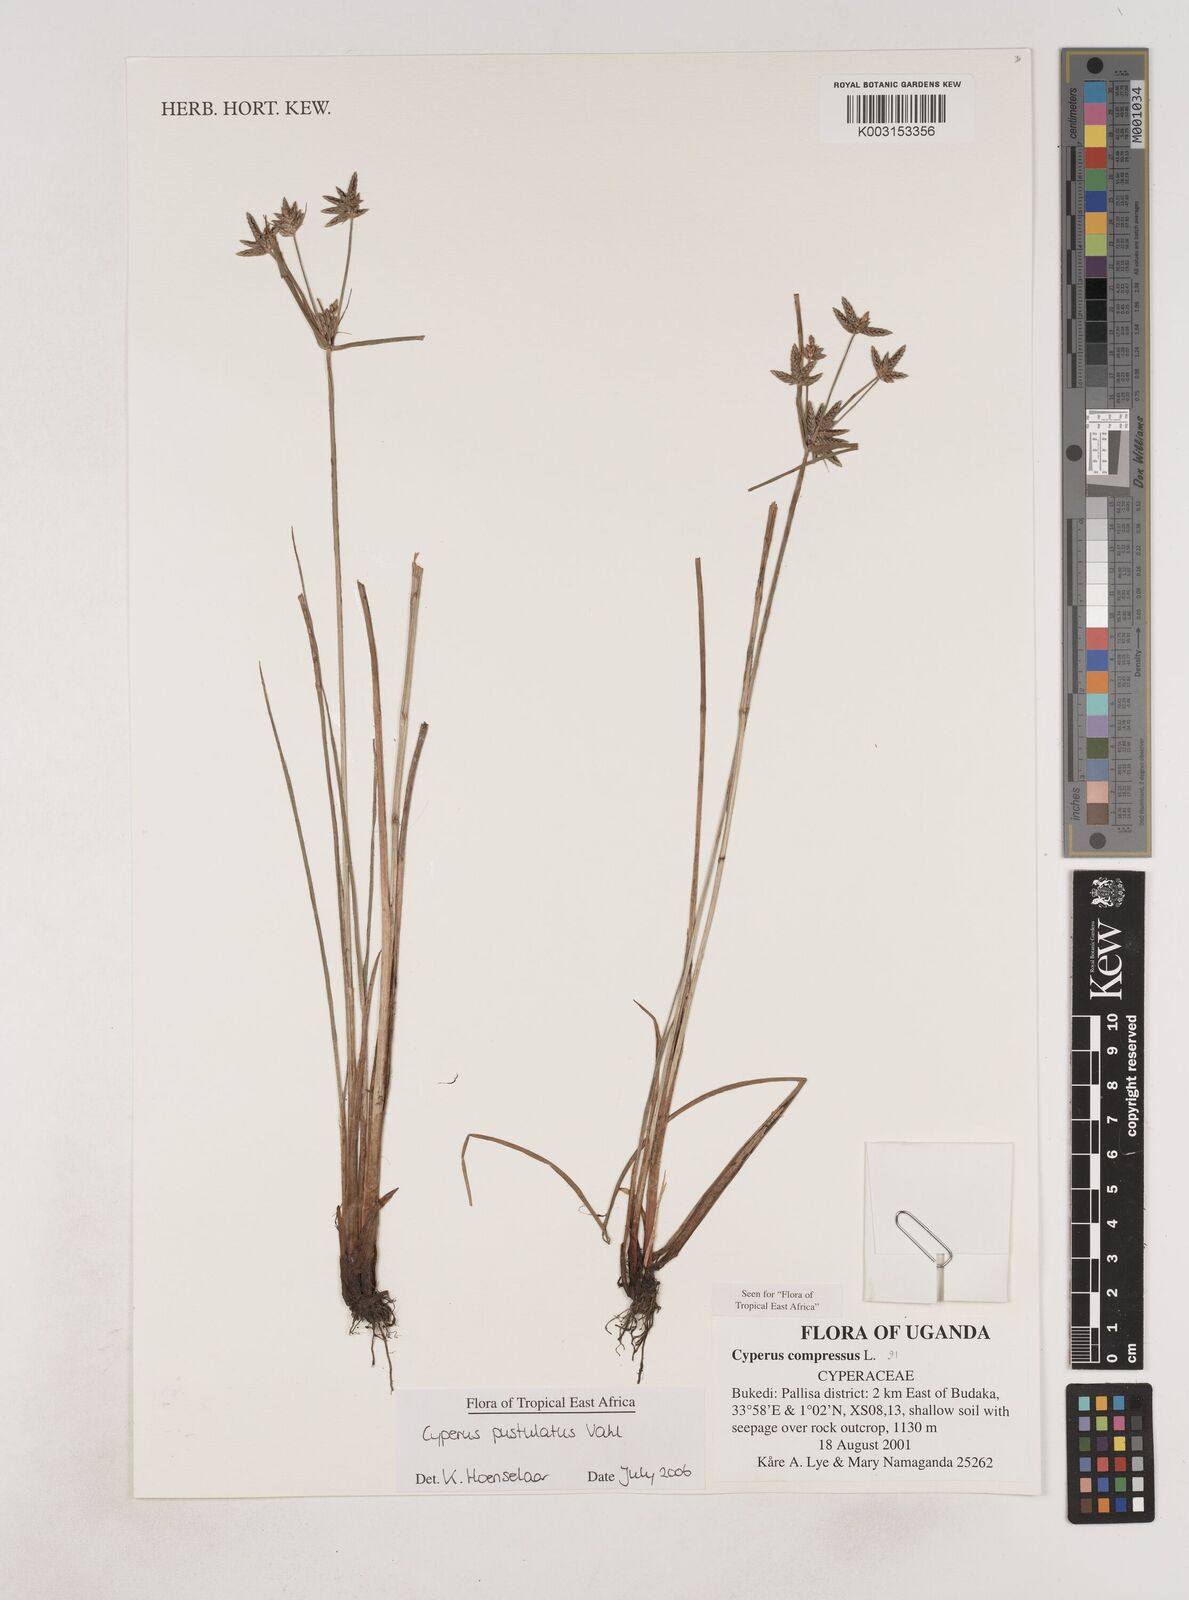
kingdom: Plantae
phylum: Tracheophyta
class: Liliopsida
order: Poales
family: Cyperaceae
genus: Cyperus
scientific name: Cyperus pustulatus
